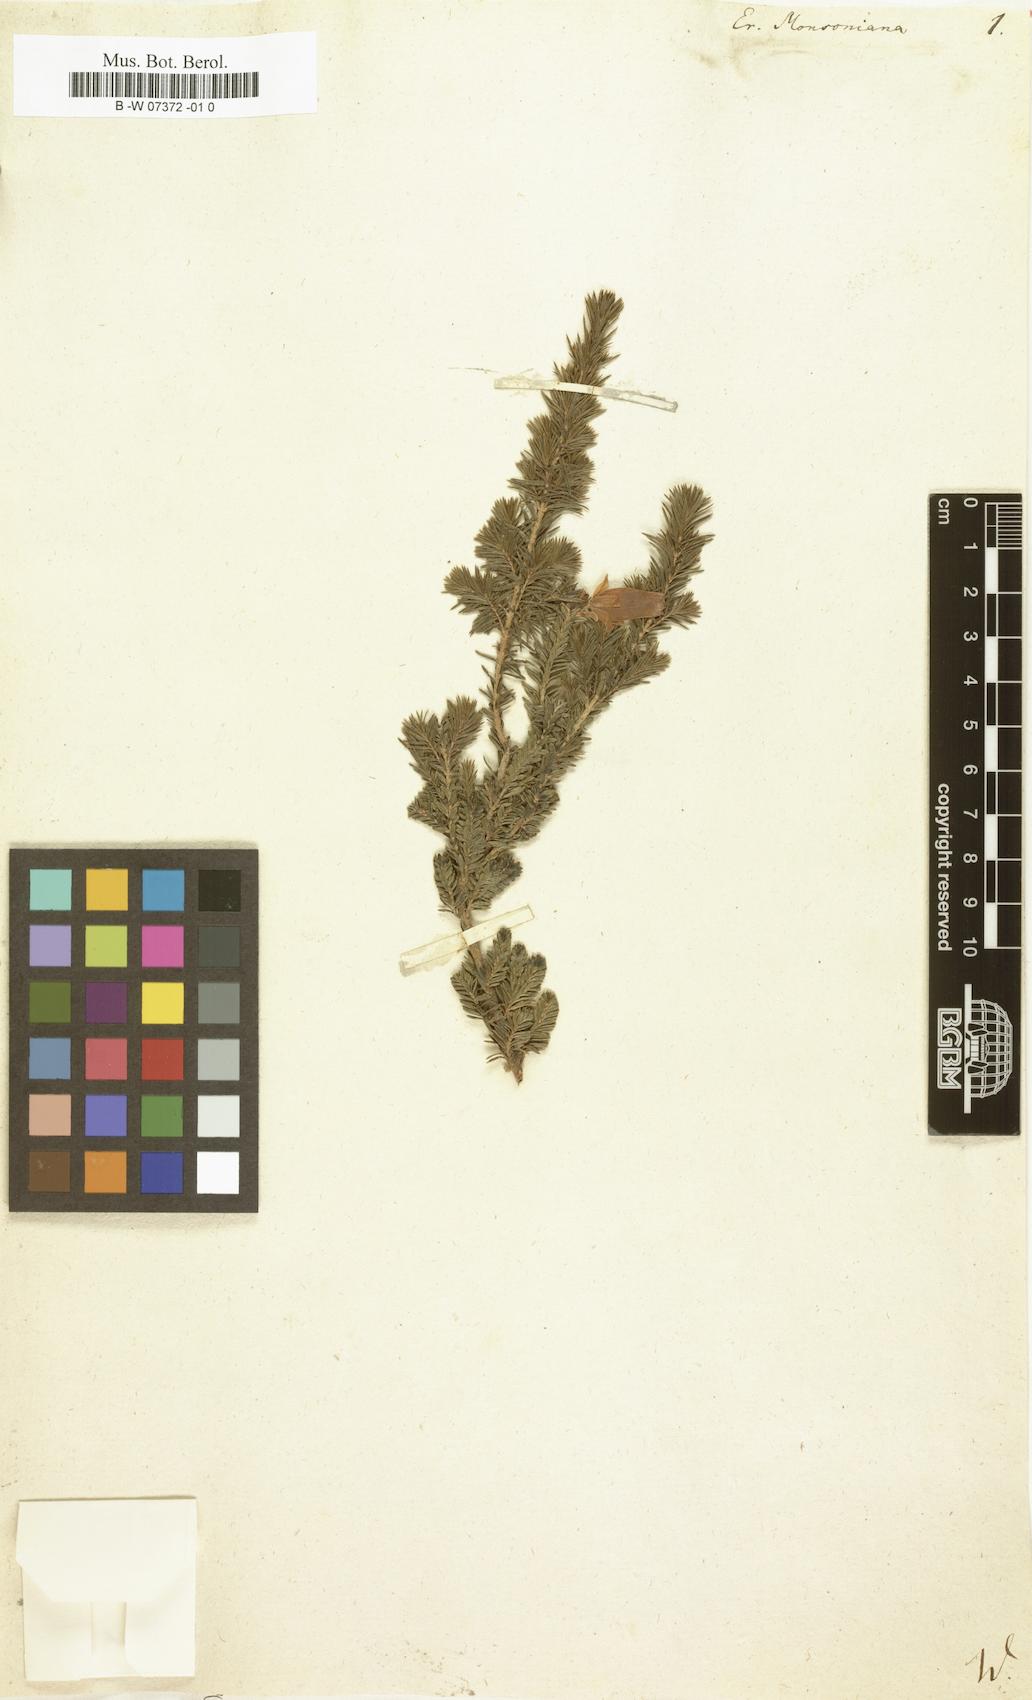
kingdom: Plantae
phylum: Tracheophyta
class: Magnoliopsida
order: Ericales
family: Ericaceae
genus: Erica
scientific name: Erica monsoniana
